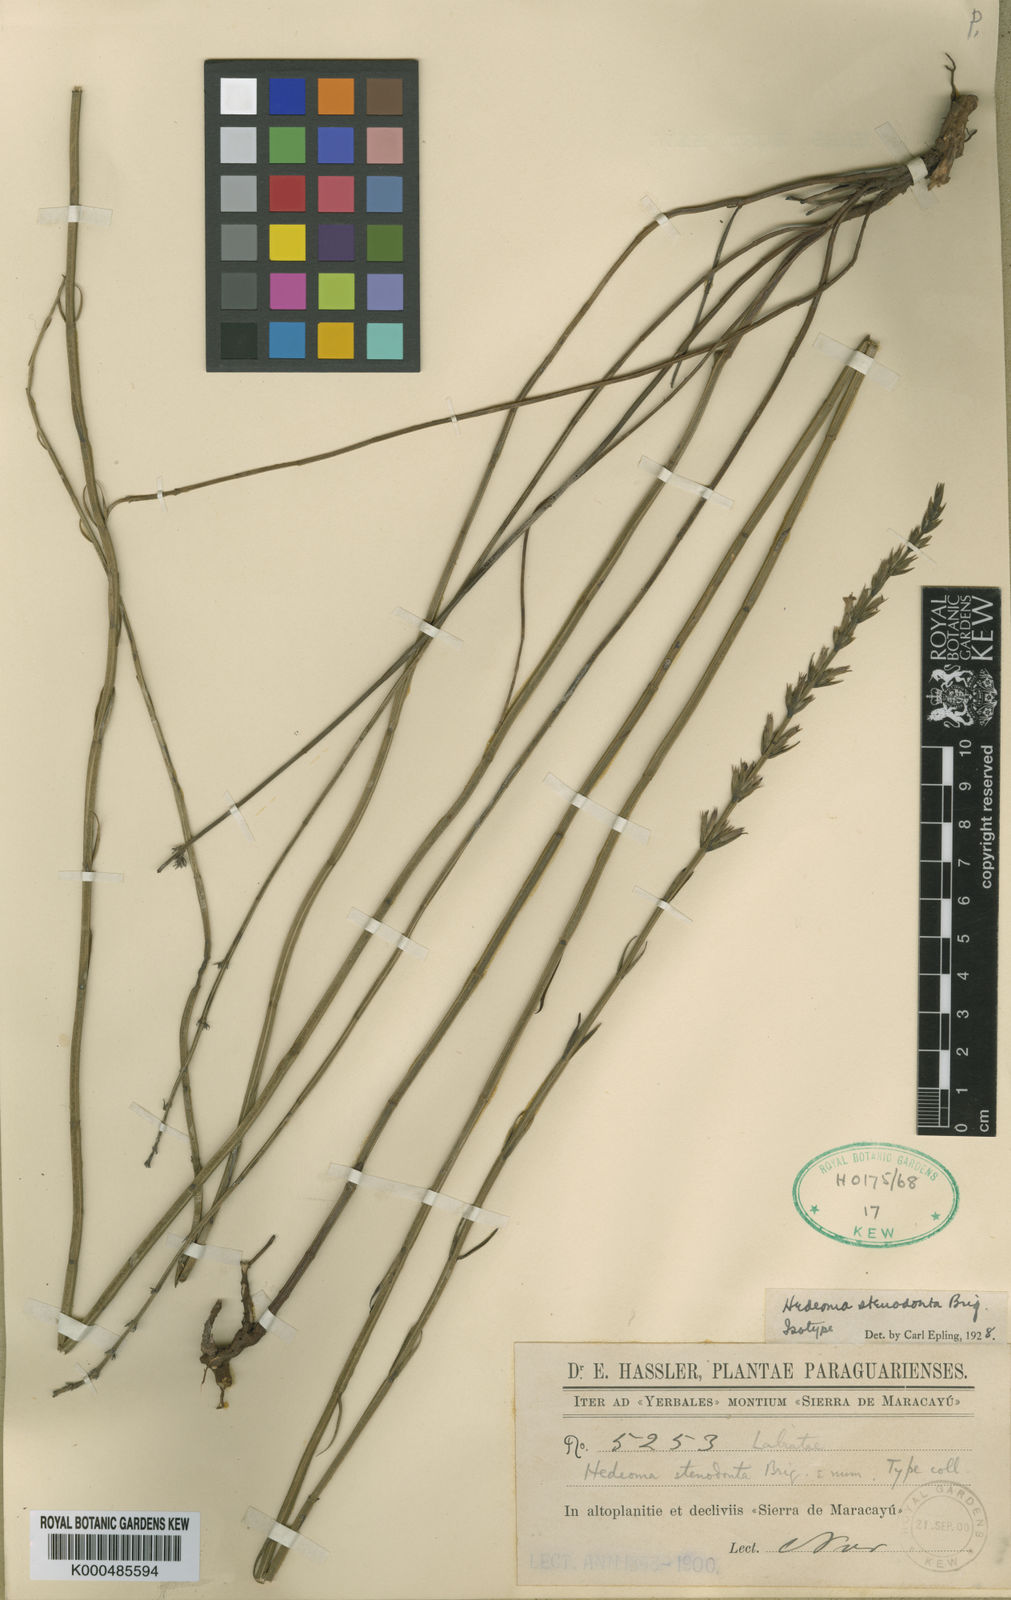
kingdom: Plantae
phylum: Tracheophyta
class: Magnoliopsida
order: Lamiales
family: Lamiaceae
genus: Rhabdocaulon
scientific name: Rhabdocaulon stenodontum
